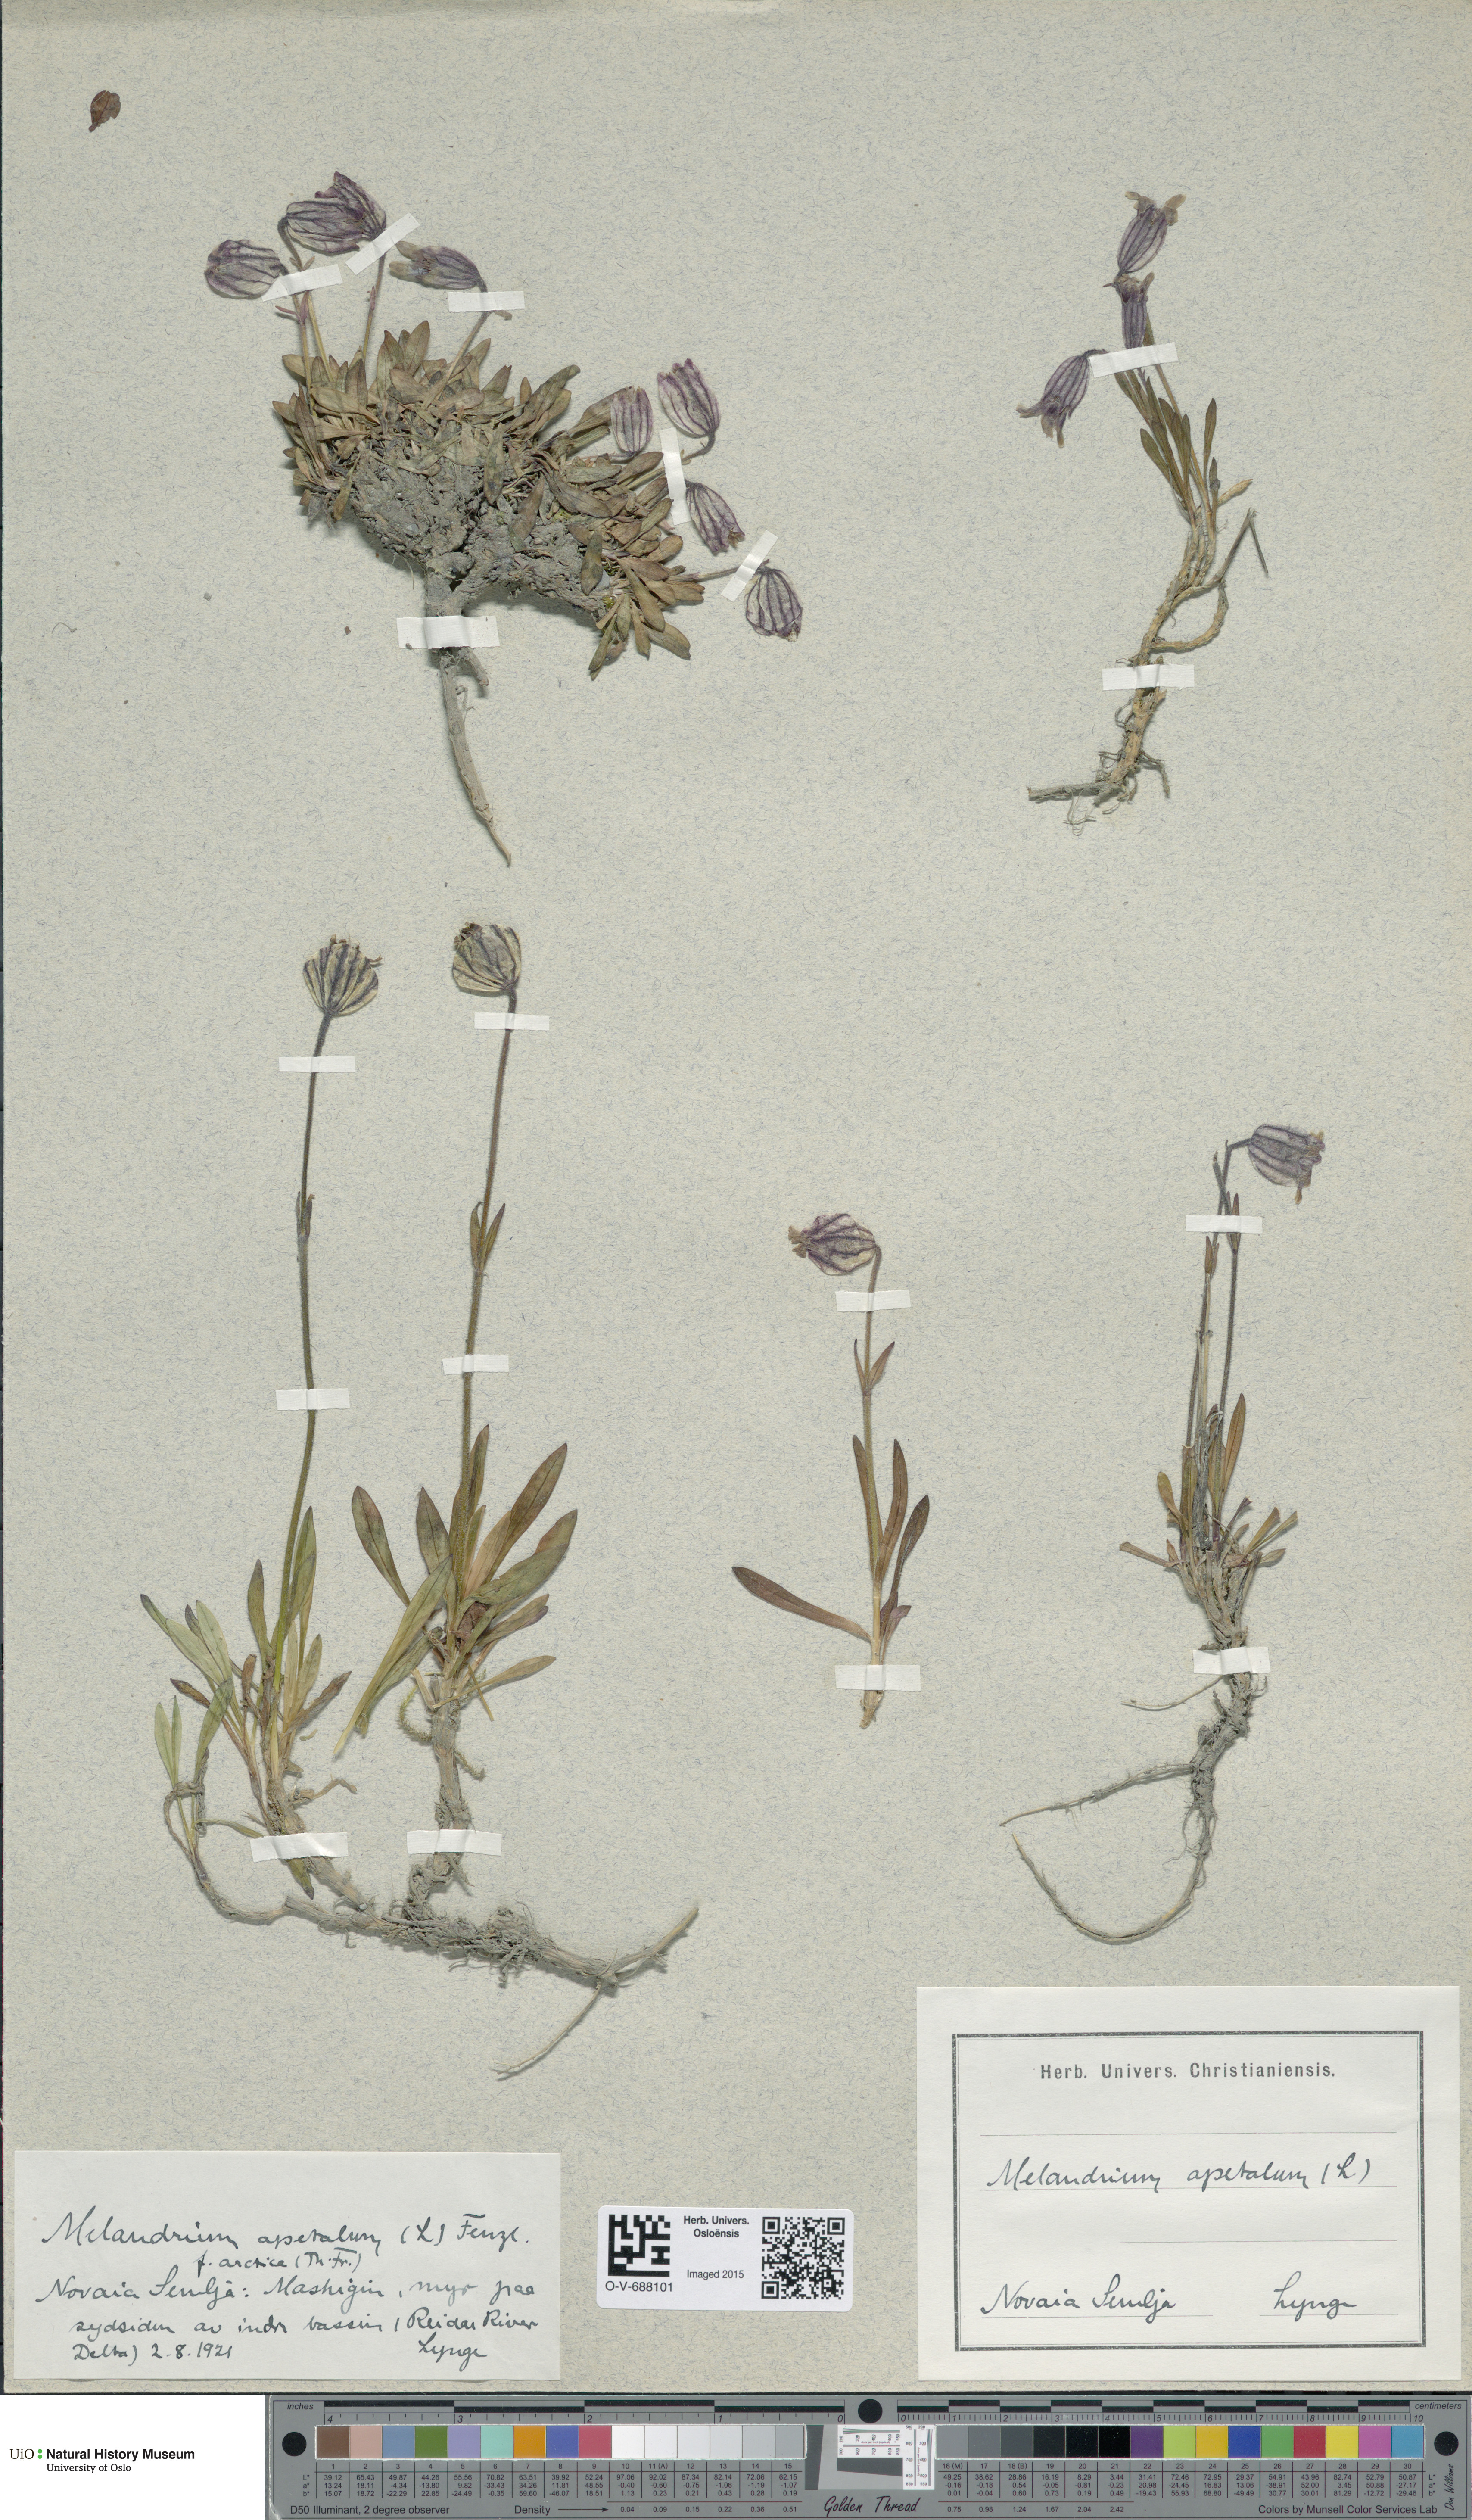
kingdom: Plantae
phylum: Tracheophyta
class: Magnoliopsida
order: Caryophyllales
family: Caryophyllaceae
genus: Silene
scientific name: Silene wahlbergella
